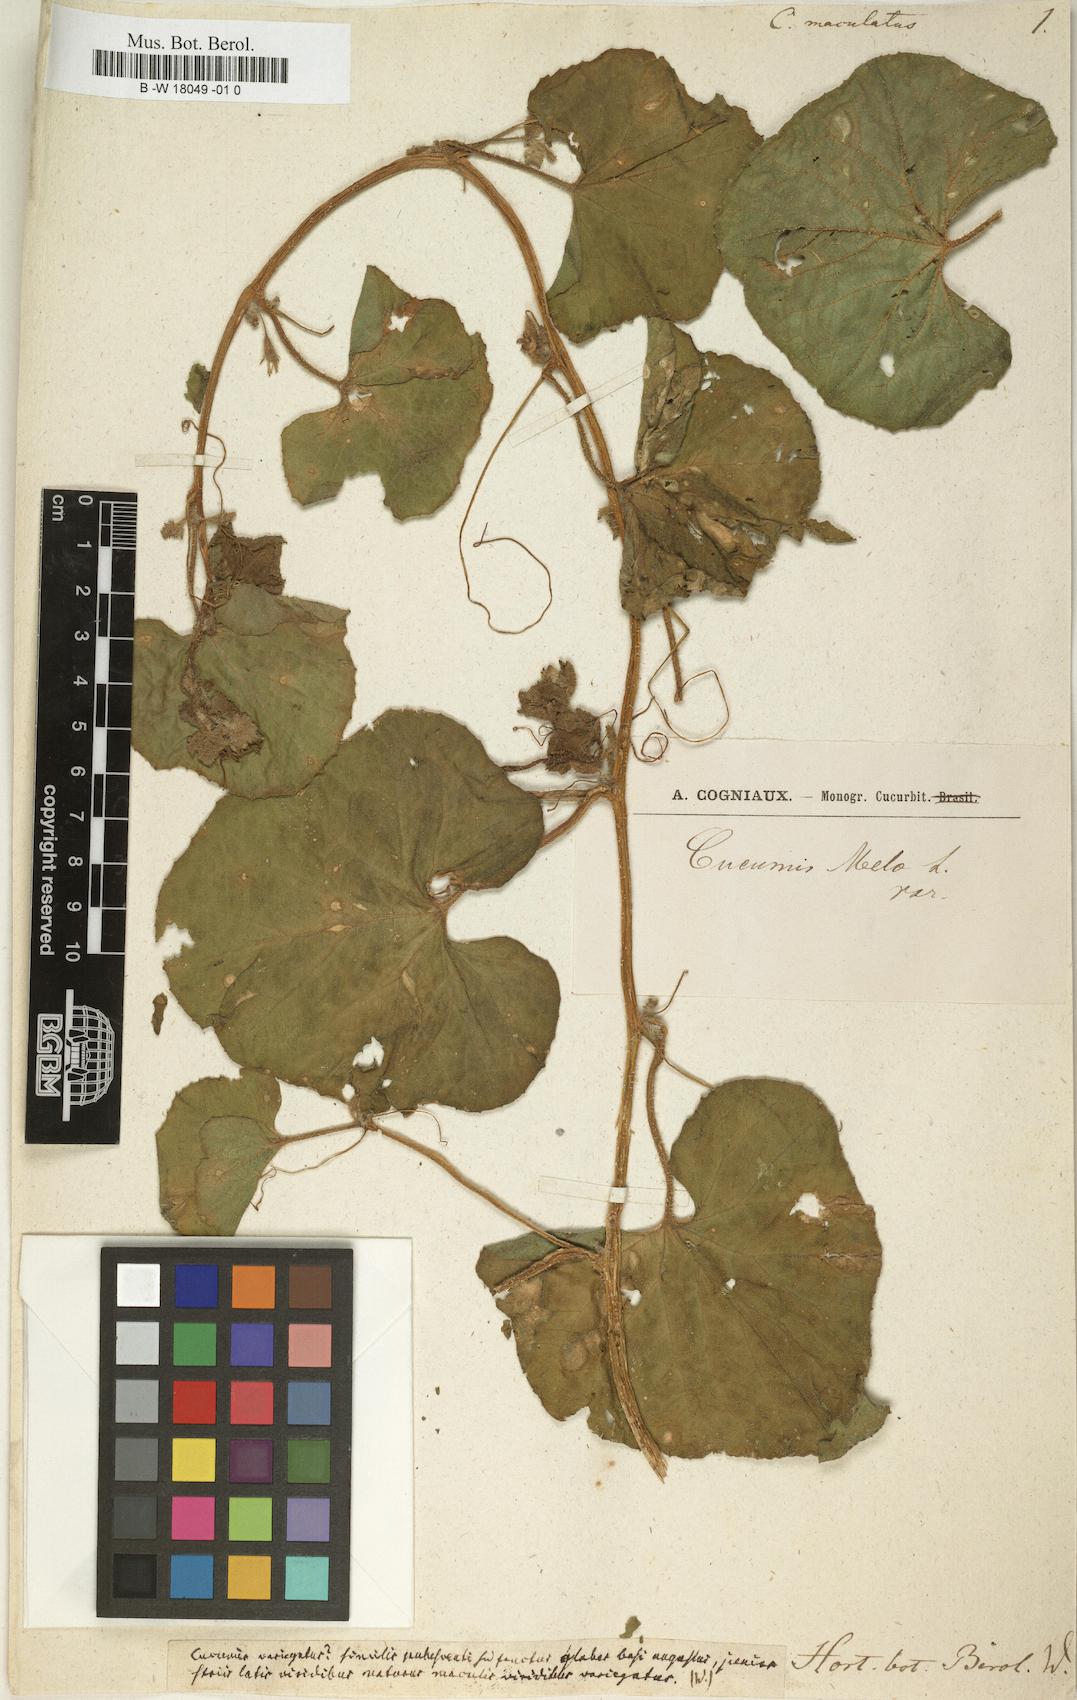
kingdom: Plantae
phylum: Tracheophyta
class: Magnoliopsida
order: Cucurbitales
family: Cucurbitaceae
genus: Cucumis
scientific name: Cucumis melo
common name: Melon
